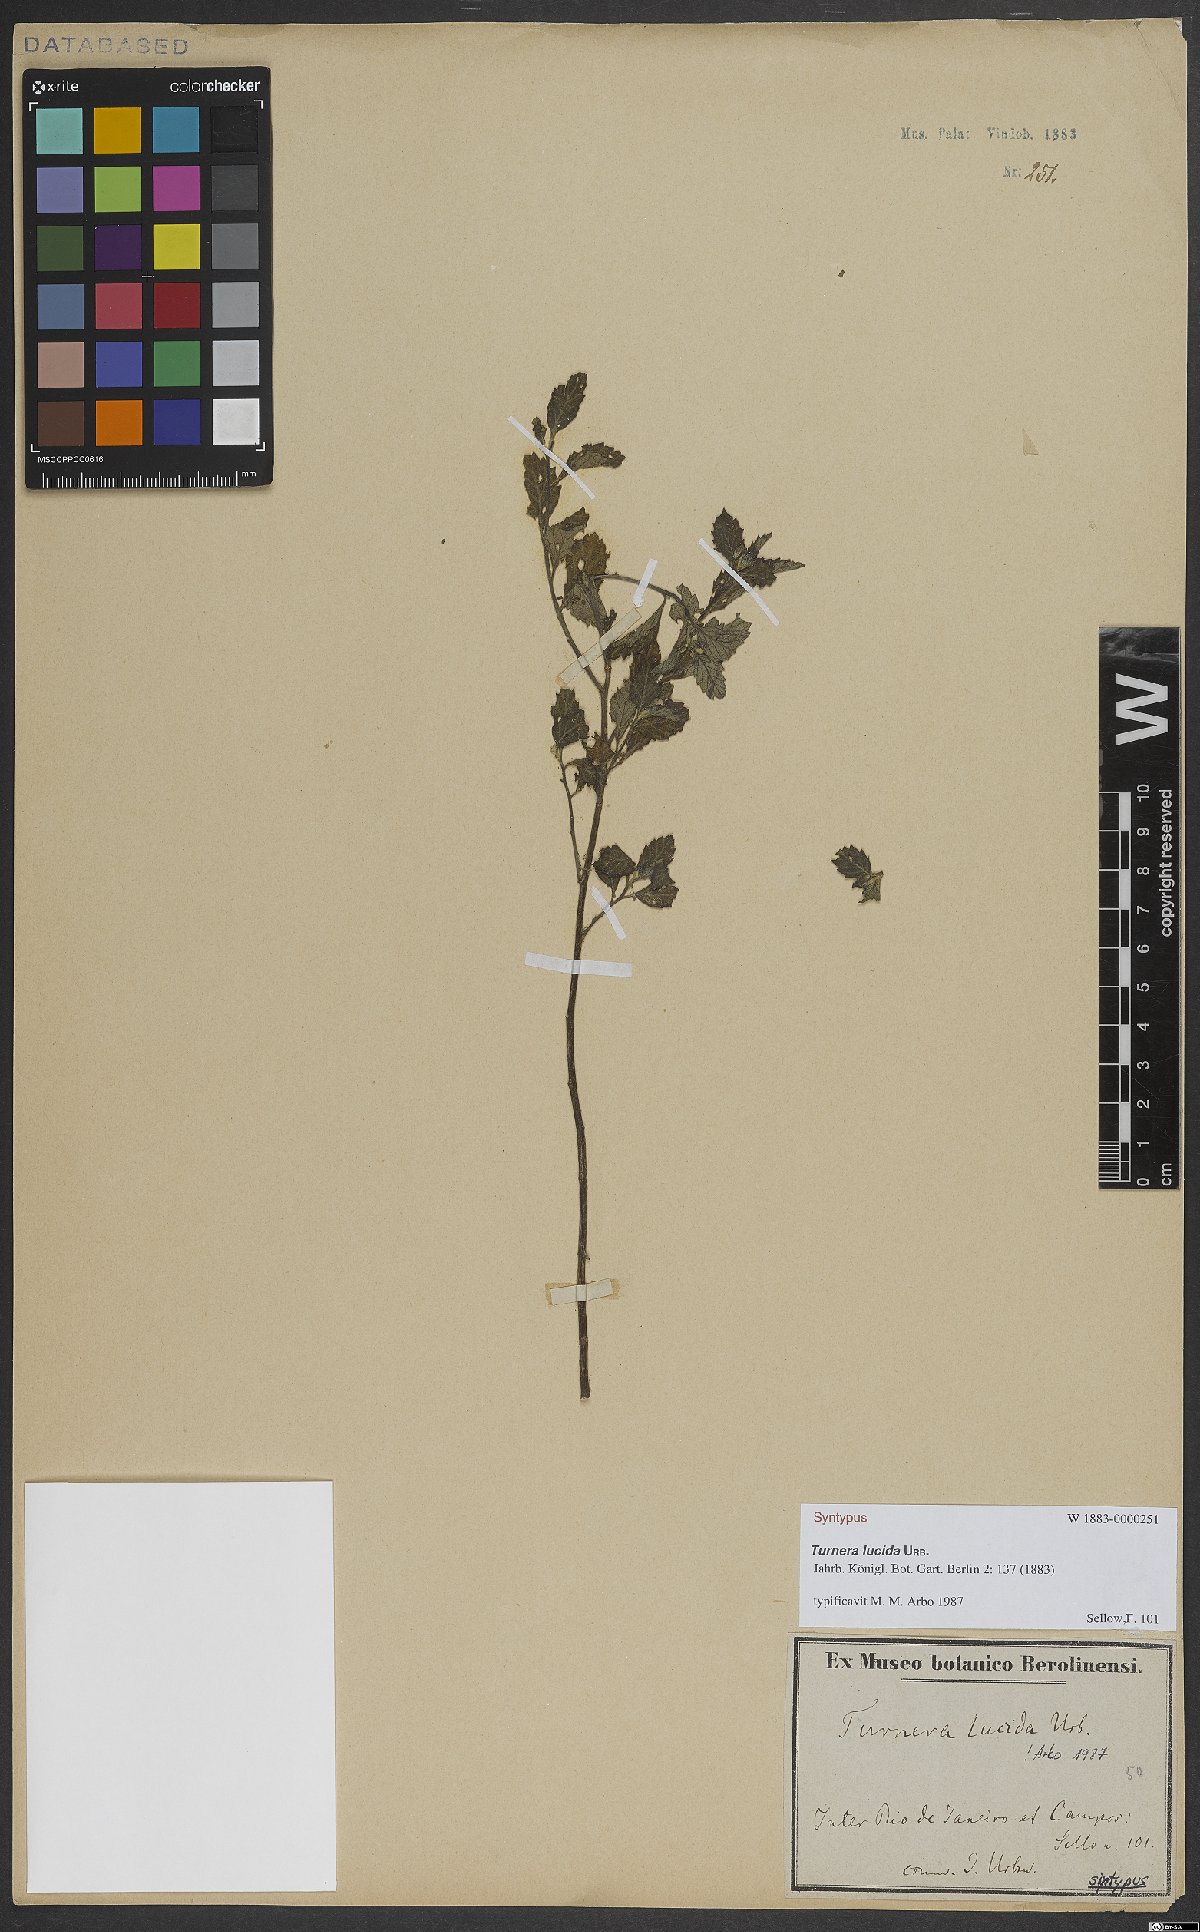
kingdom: Plantae
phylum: Tracheophyta
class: Magnoliopsida
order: Malpighiales
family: Turneraceae
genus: Turnera
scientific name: Turnera lucida
